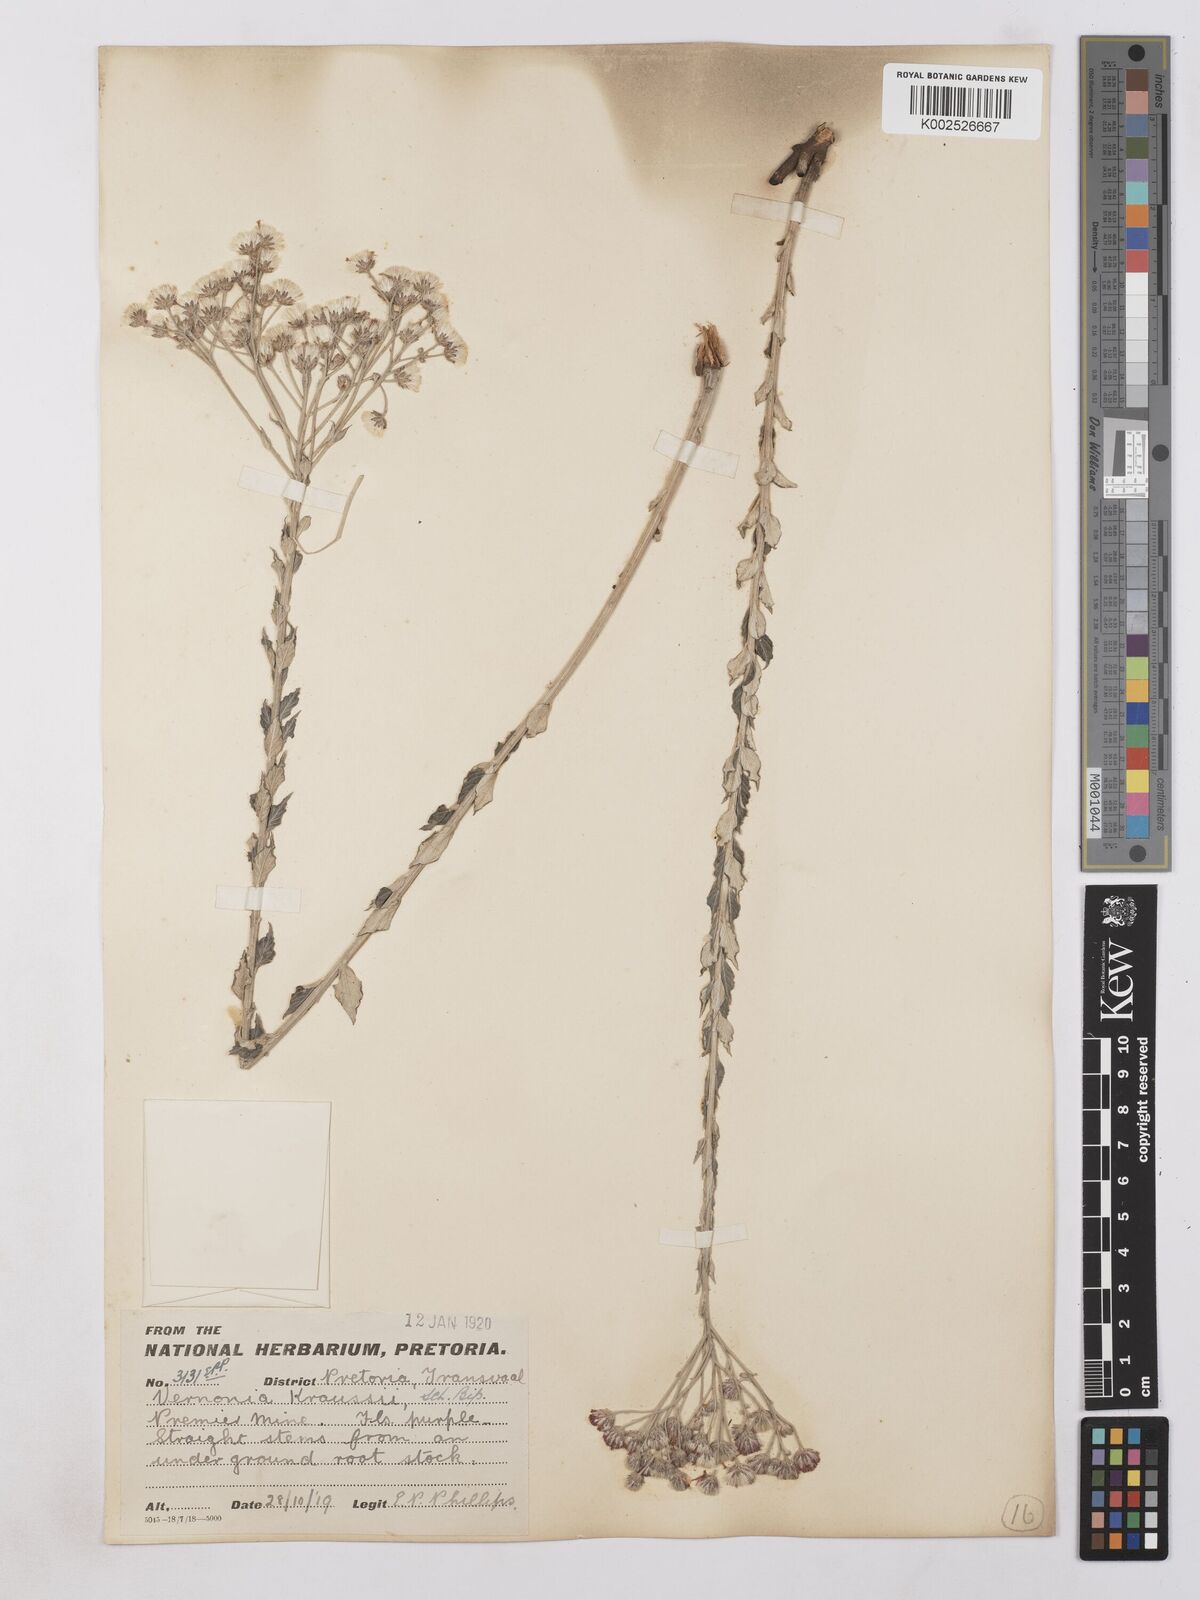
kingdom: Plantae
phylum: Tracheophyta
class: Magnoliopsida
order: Asterales
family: Asteraceae
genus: Hilliardiella
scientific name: Hilliardiella oligocephala
